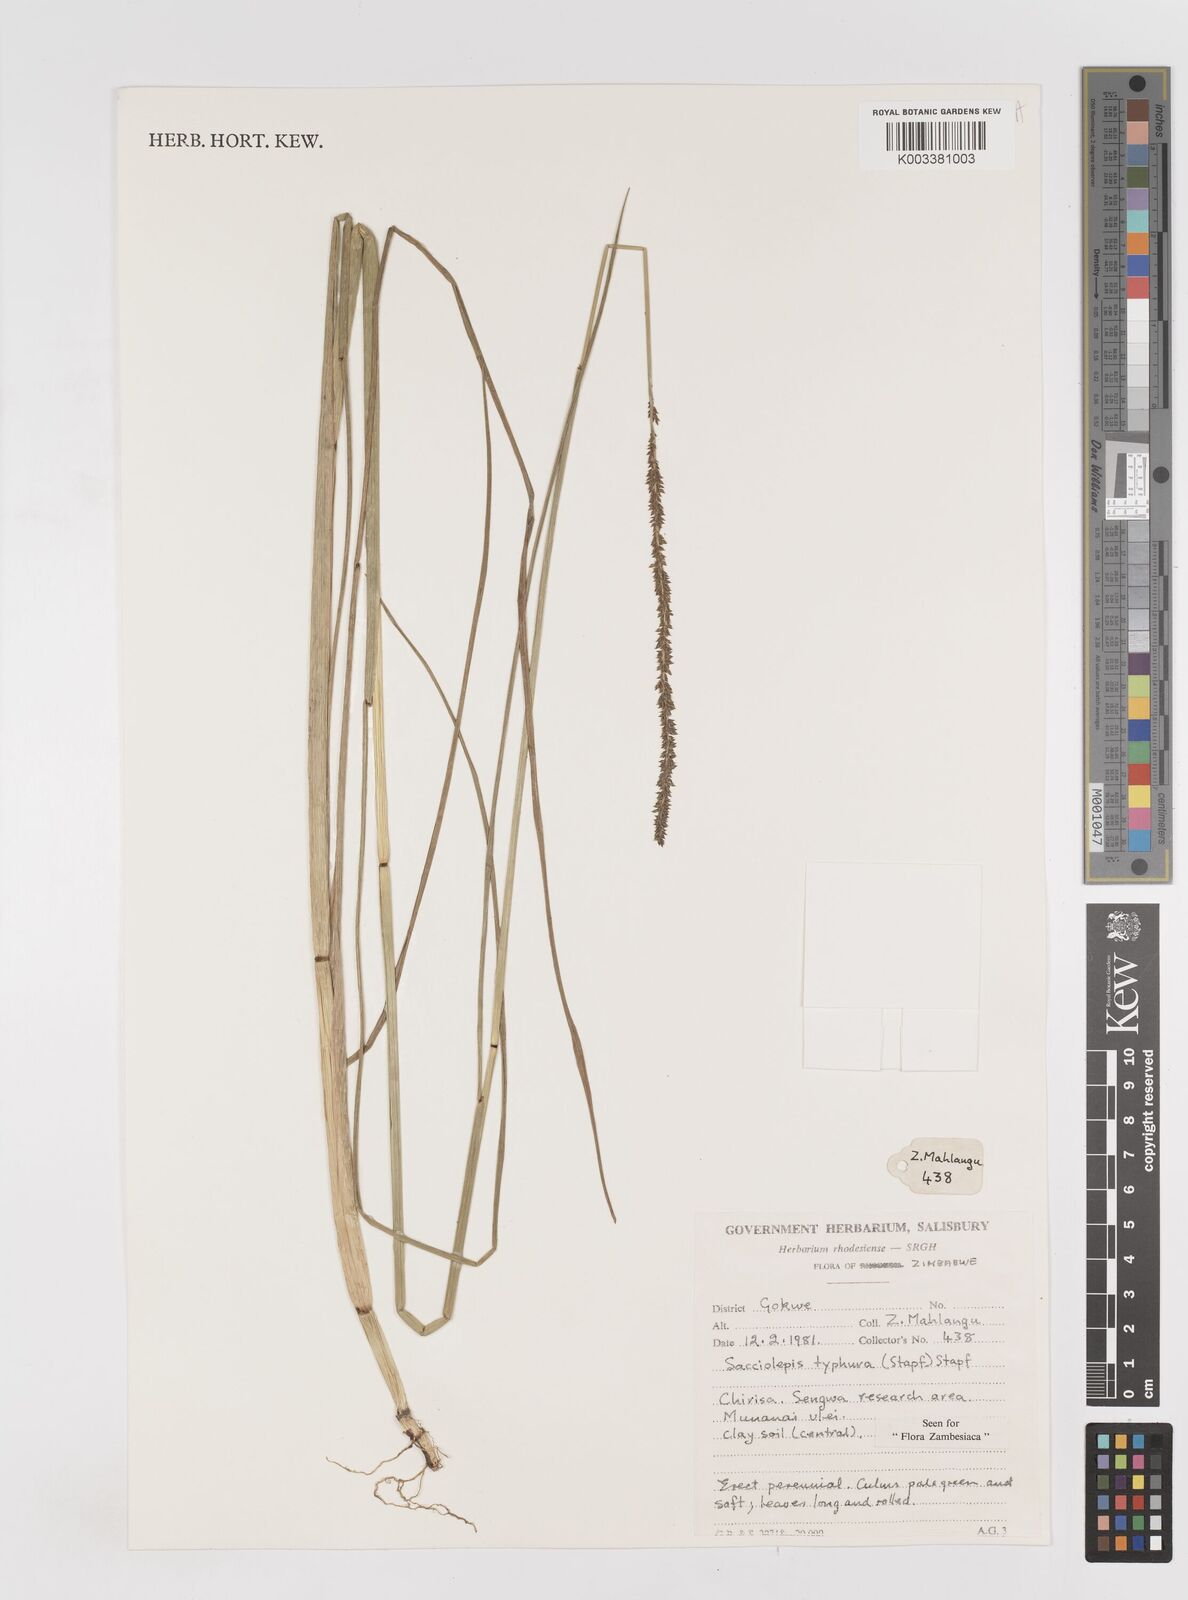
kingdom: Plantae
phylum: Tracheophyta
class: Liliopsida
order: Poales
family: Poaceae
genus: Sacciolepis
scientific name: Sacciolepis typhura
